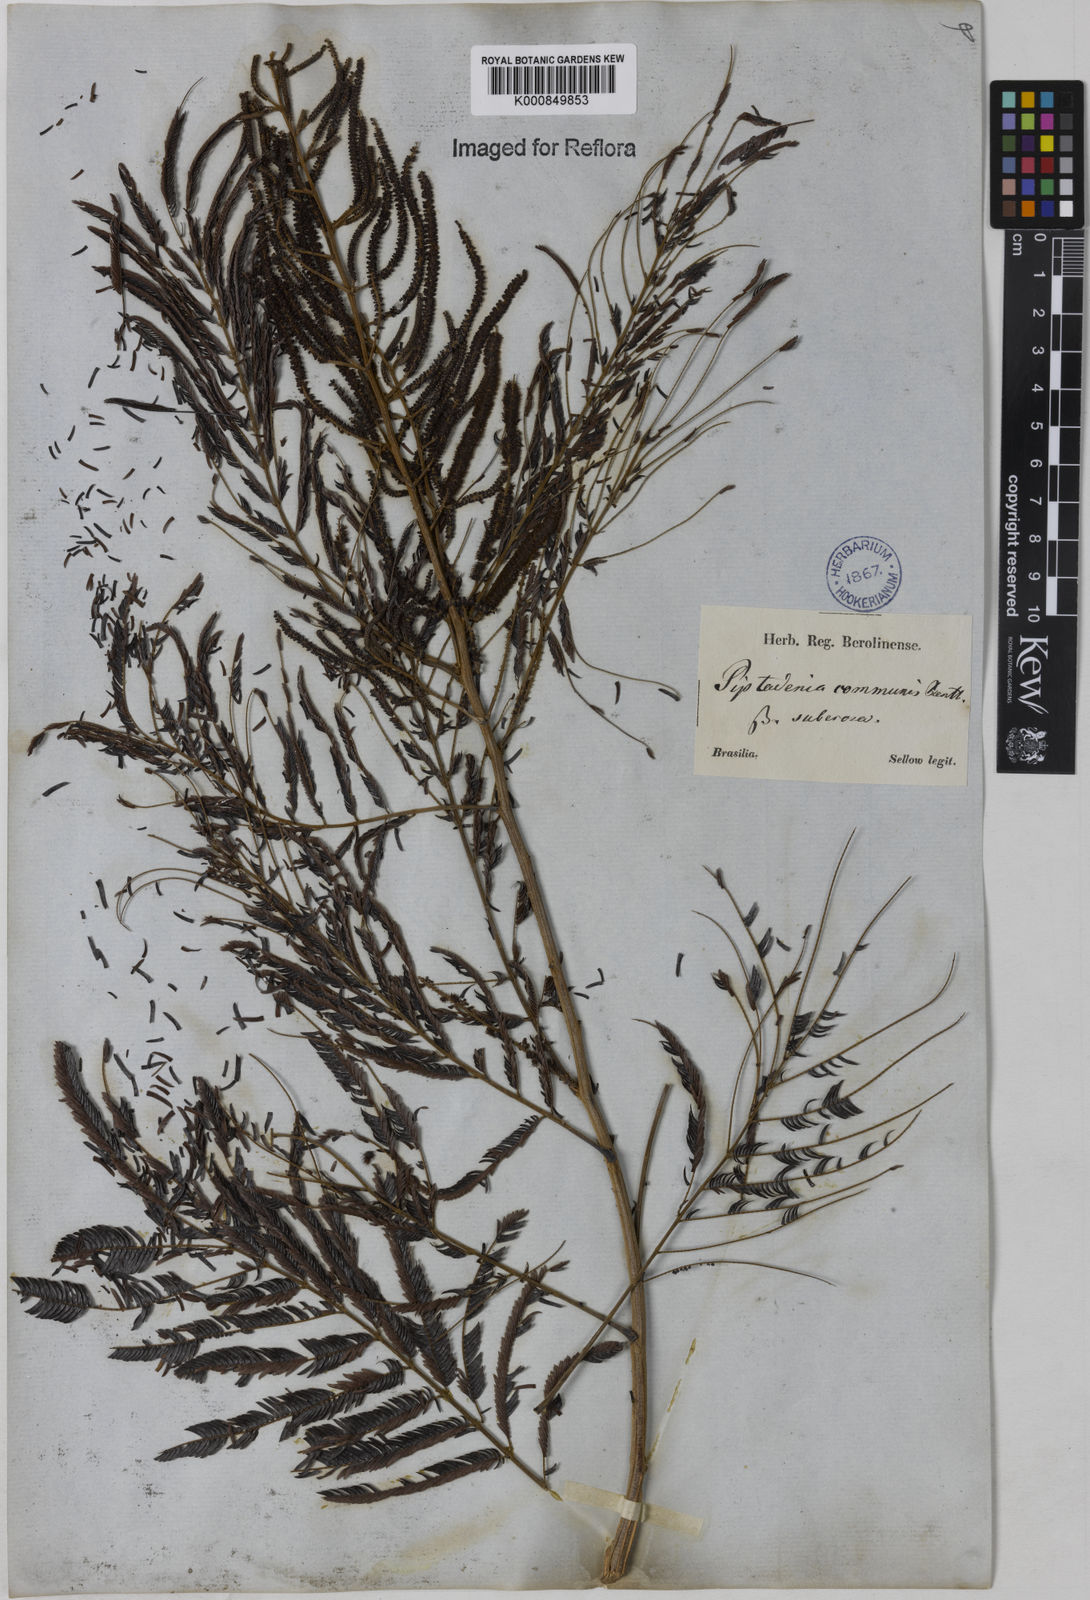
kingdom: Plantae
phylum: Tracheophyta
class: Magnoliopsida
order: Fabales
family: Fabaceae
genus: Piptadenia
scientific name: Piptadenia gonoacantha
